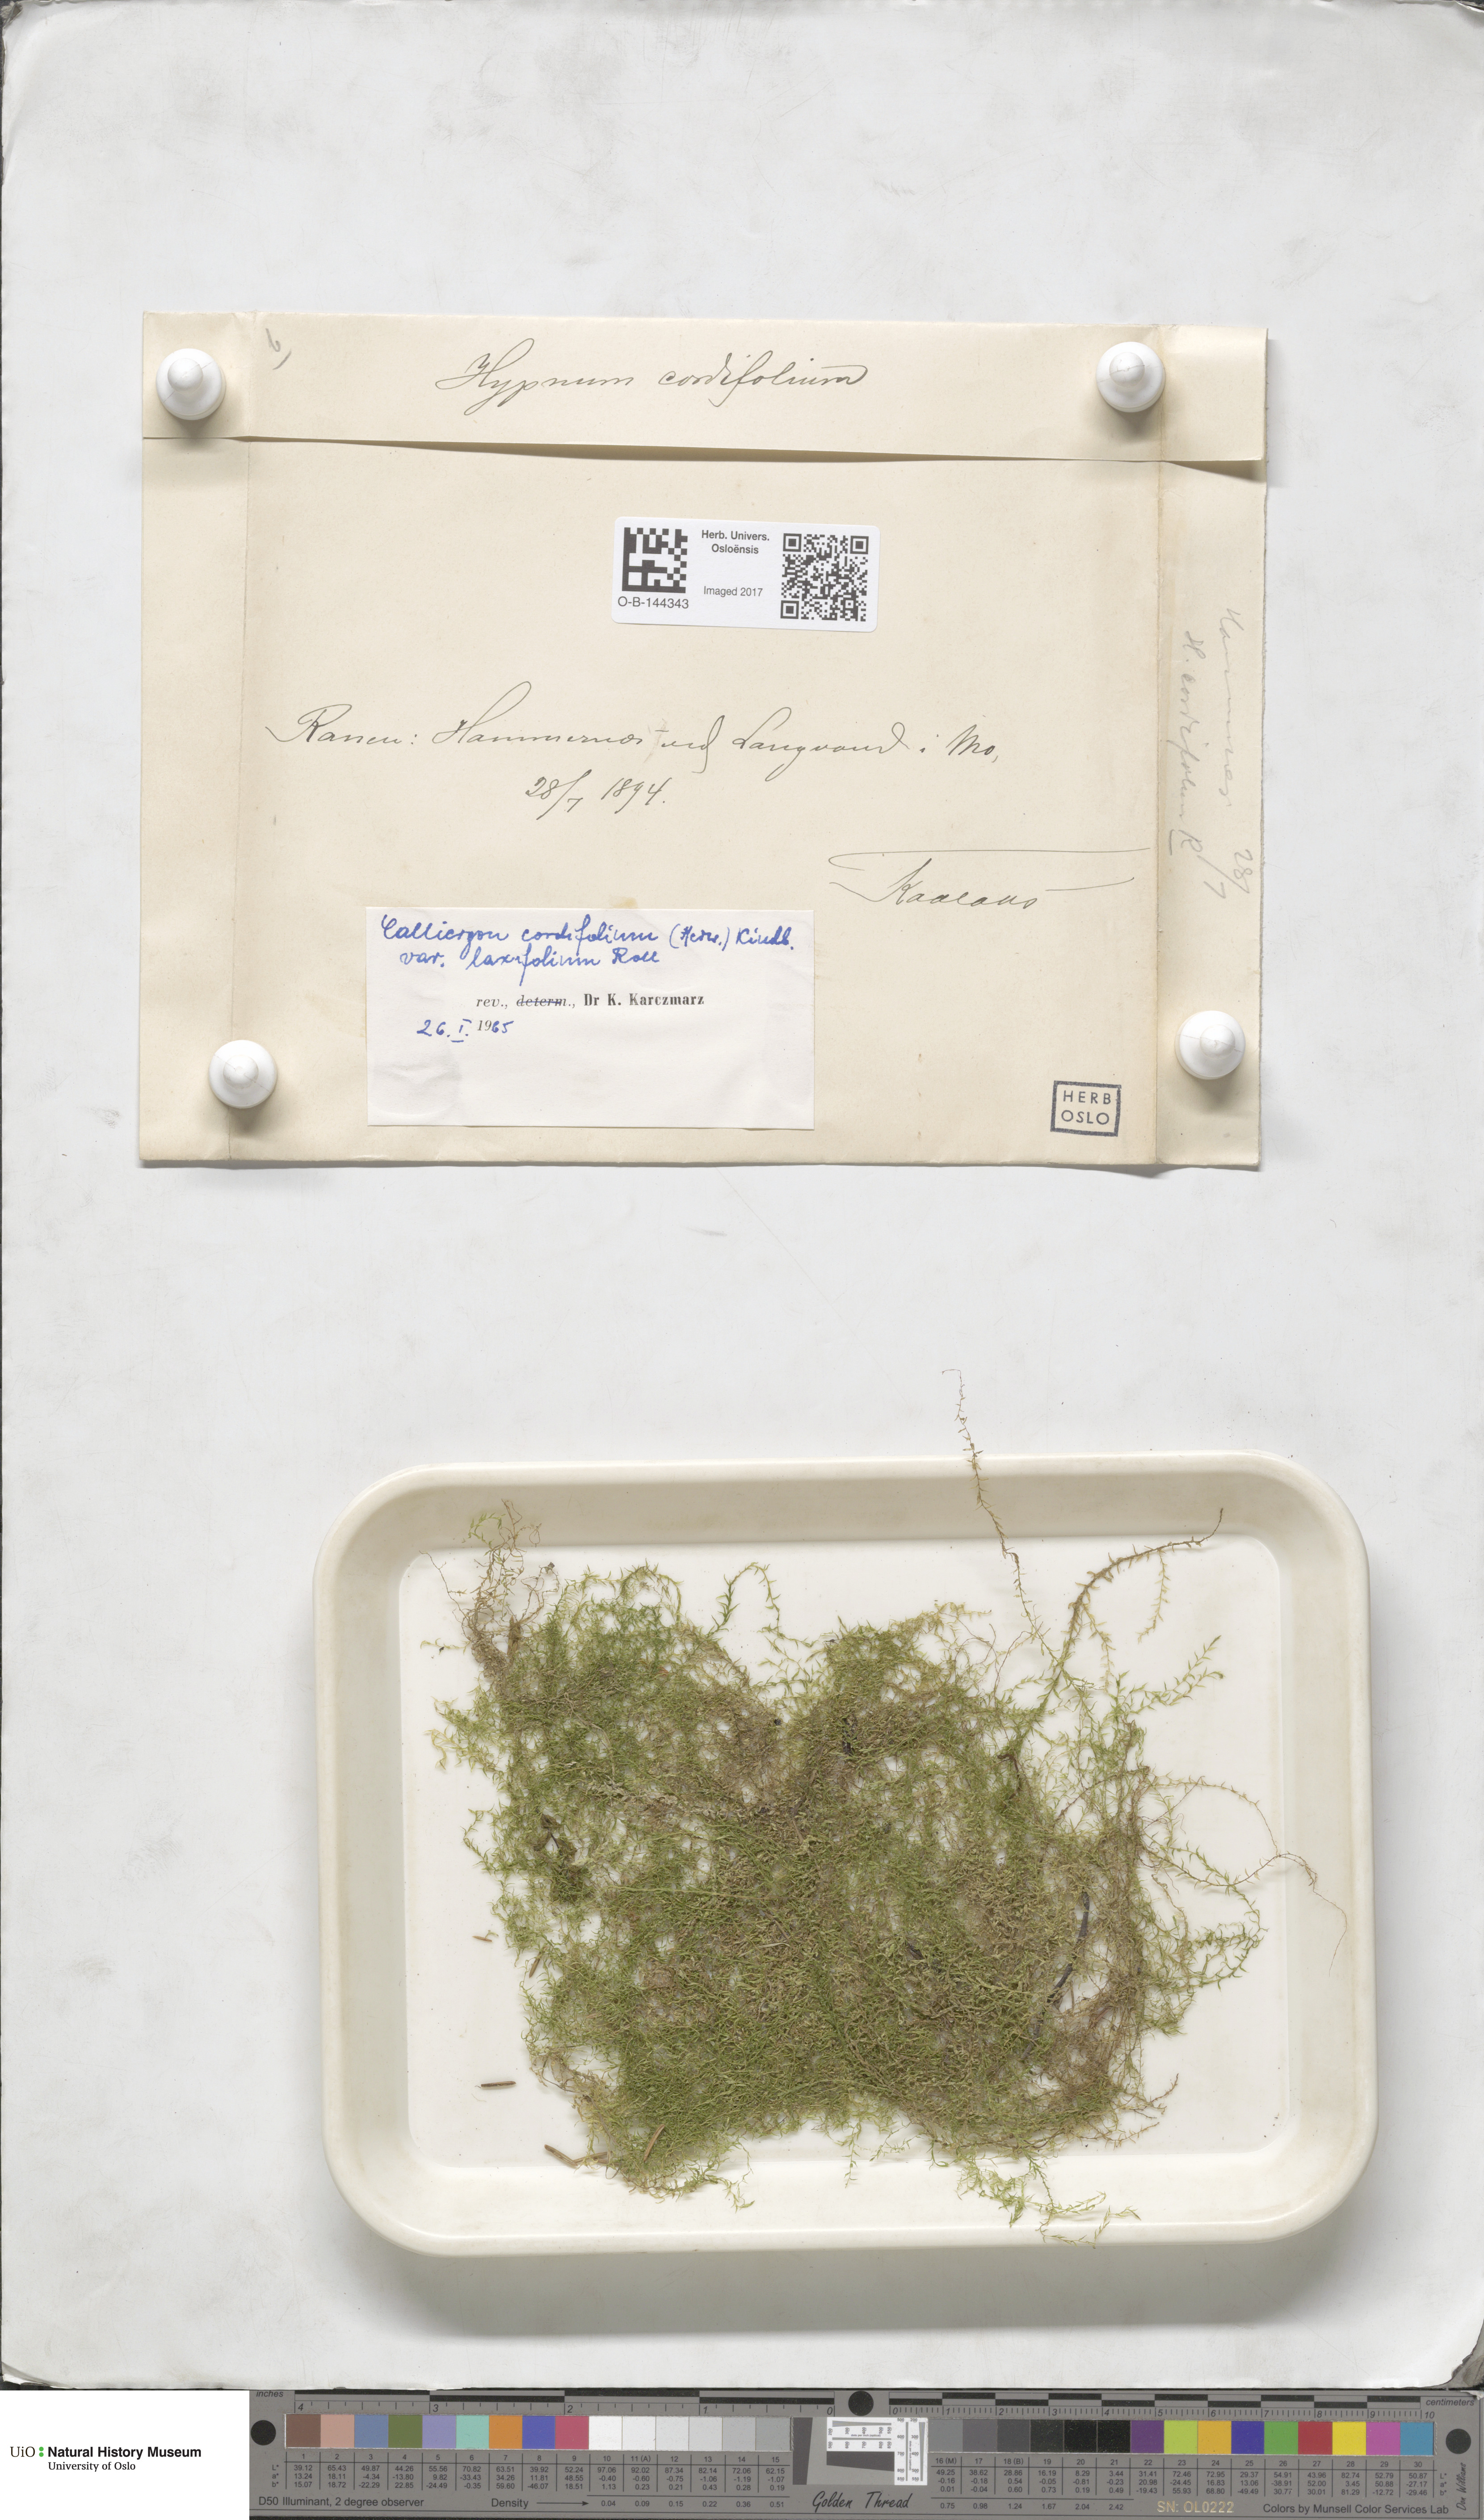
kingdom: Plantae
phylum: Bryophyta
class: Bryopsida
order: Hypnales
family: Calliergonaceae
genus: Calliergon
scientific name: Calliergon cordifolium
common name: Heart-leaved spear moss
